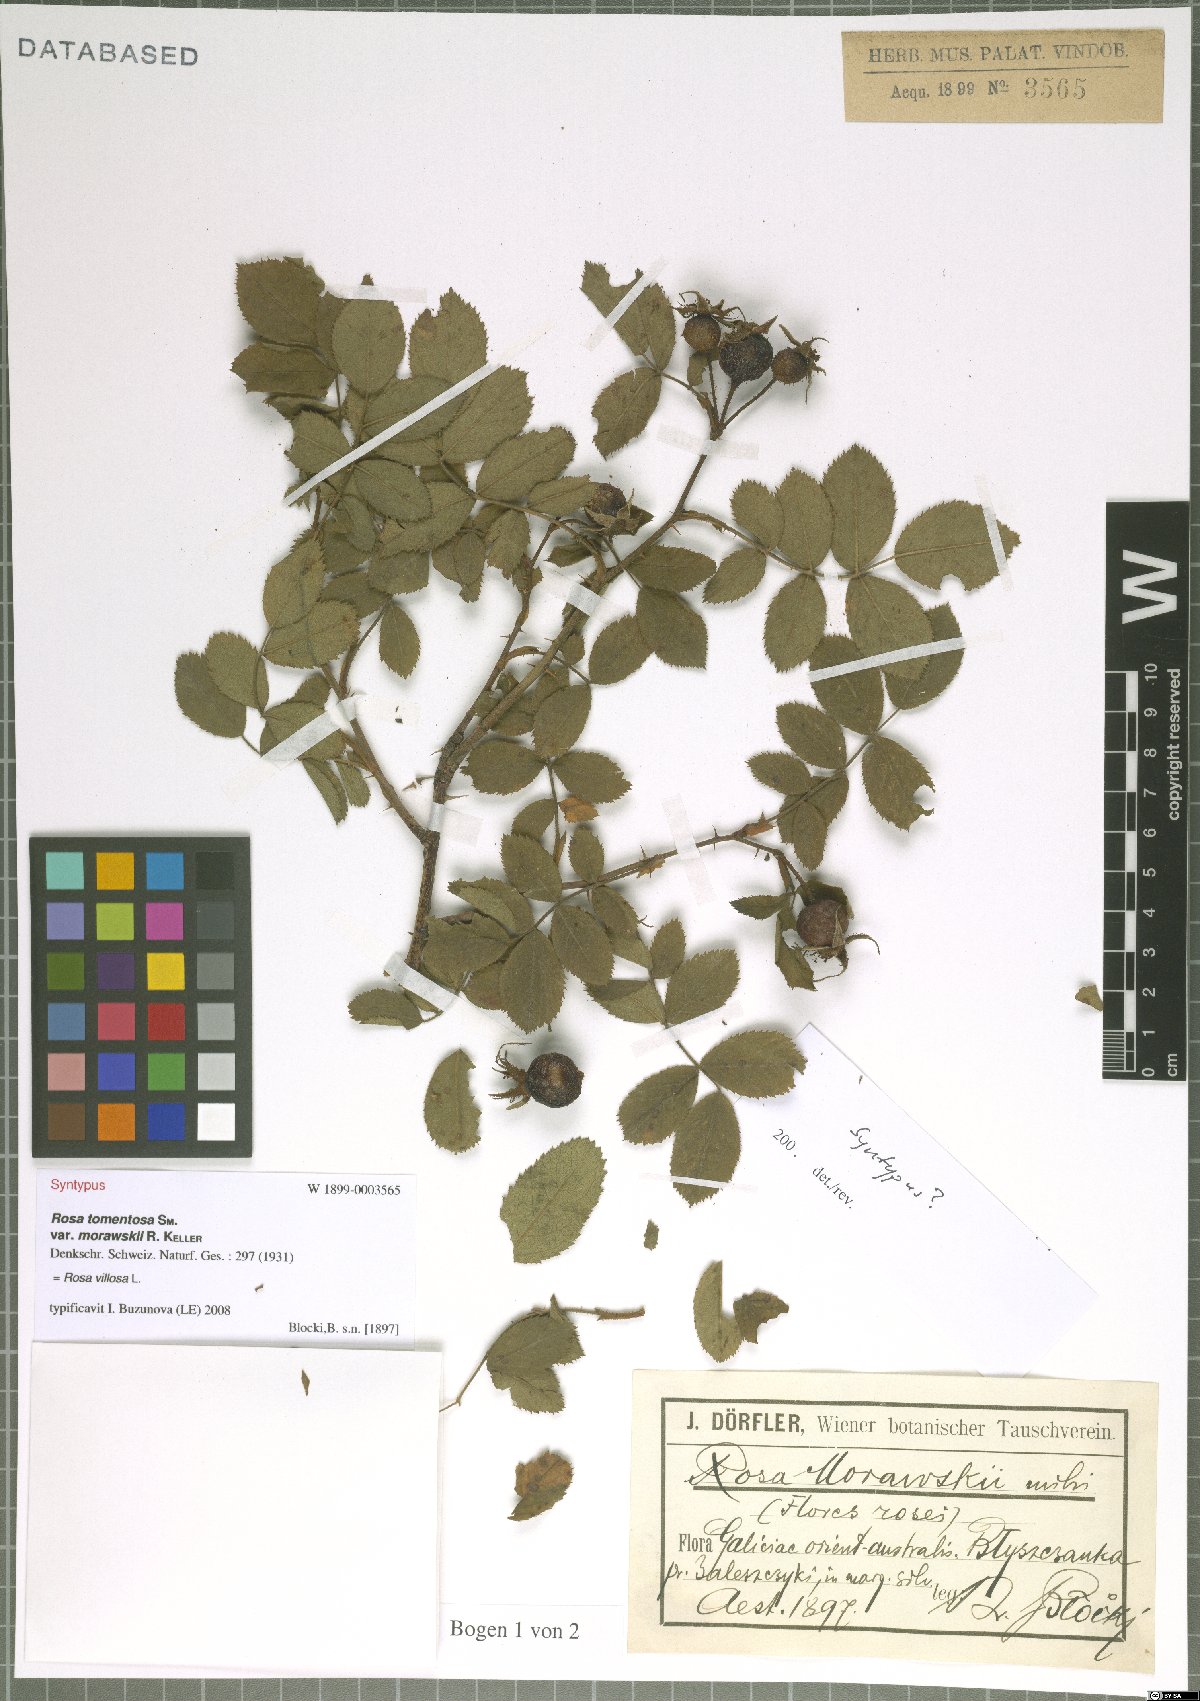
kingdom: Plantae
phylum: Tracheophyta
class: Magnoliopsida
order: Rosales
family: Rosaceae
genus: Rosa
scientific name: Rosa villosa
